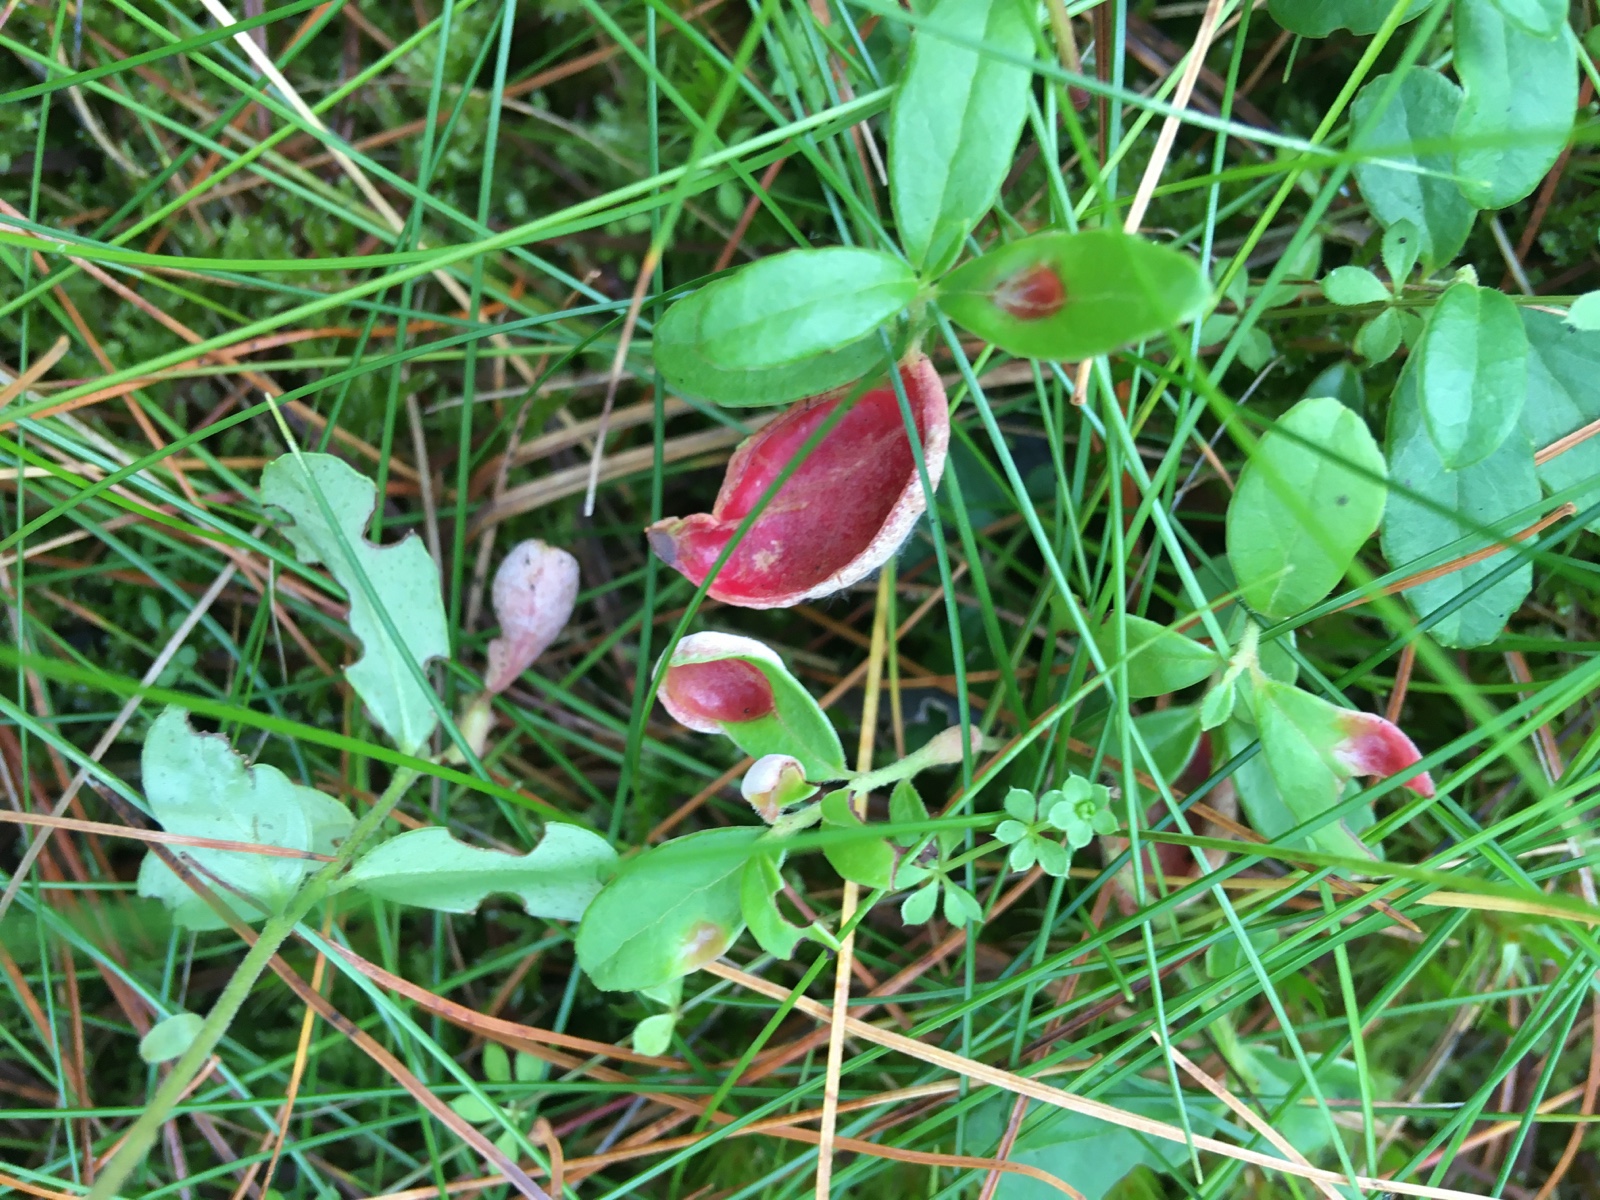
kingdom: Fungi
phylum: Basidiomycota
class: Exobasidiomycetes
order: Exobasidiales
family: Exobasidiaceae
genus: Exobasidium
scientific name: Exobasidium vaccinii
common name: tyttebærblad-bøllesvamp
